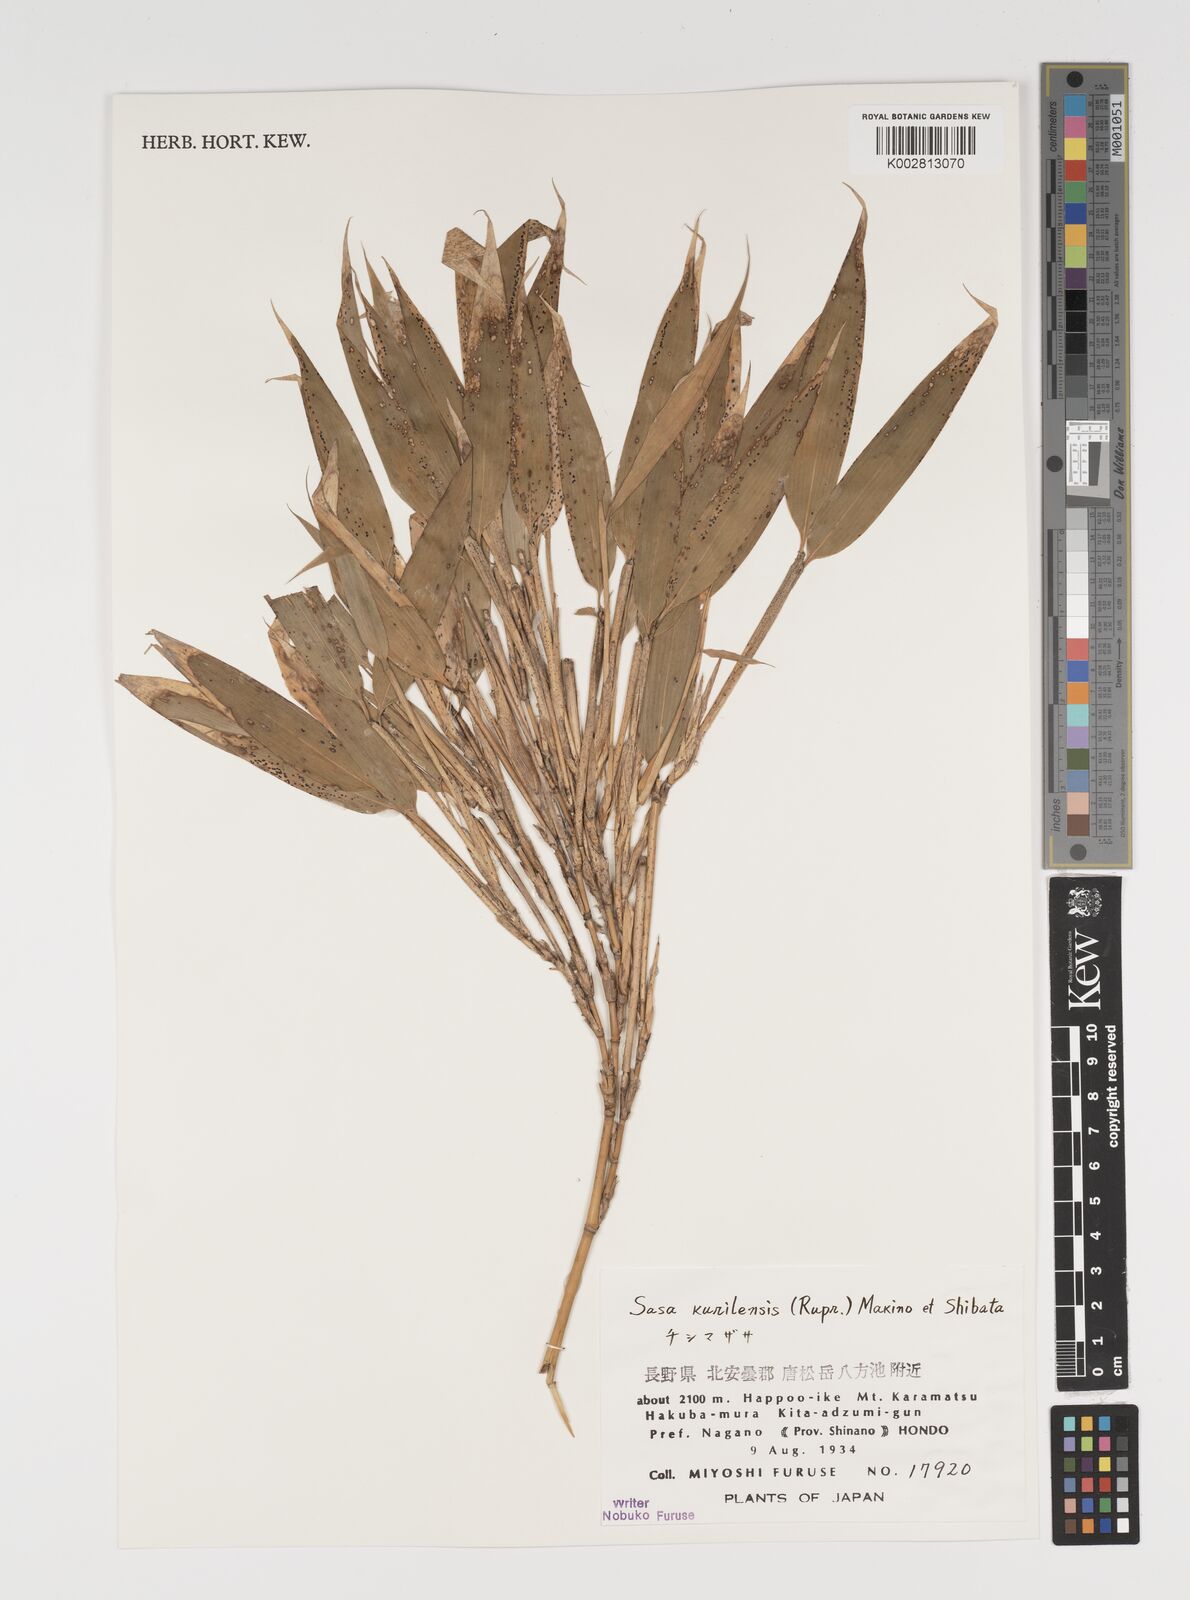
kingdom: Plantae
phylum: Tracheophyta
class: Liliopsida
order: Poales
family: Poaceae
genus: Sasa
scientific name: Sasa kurilensis
